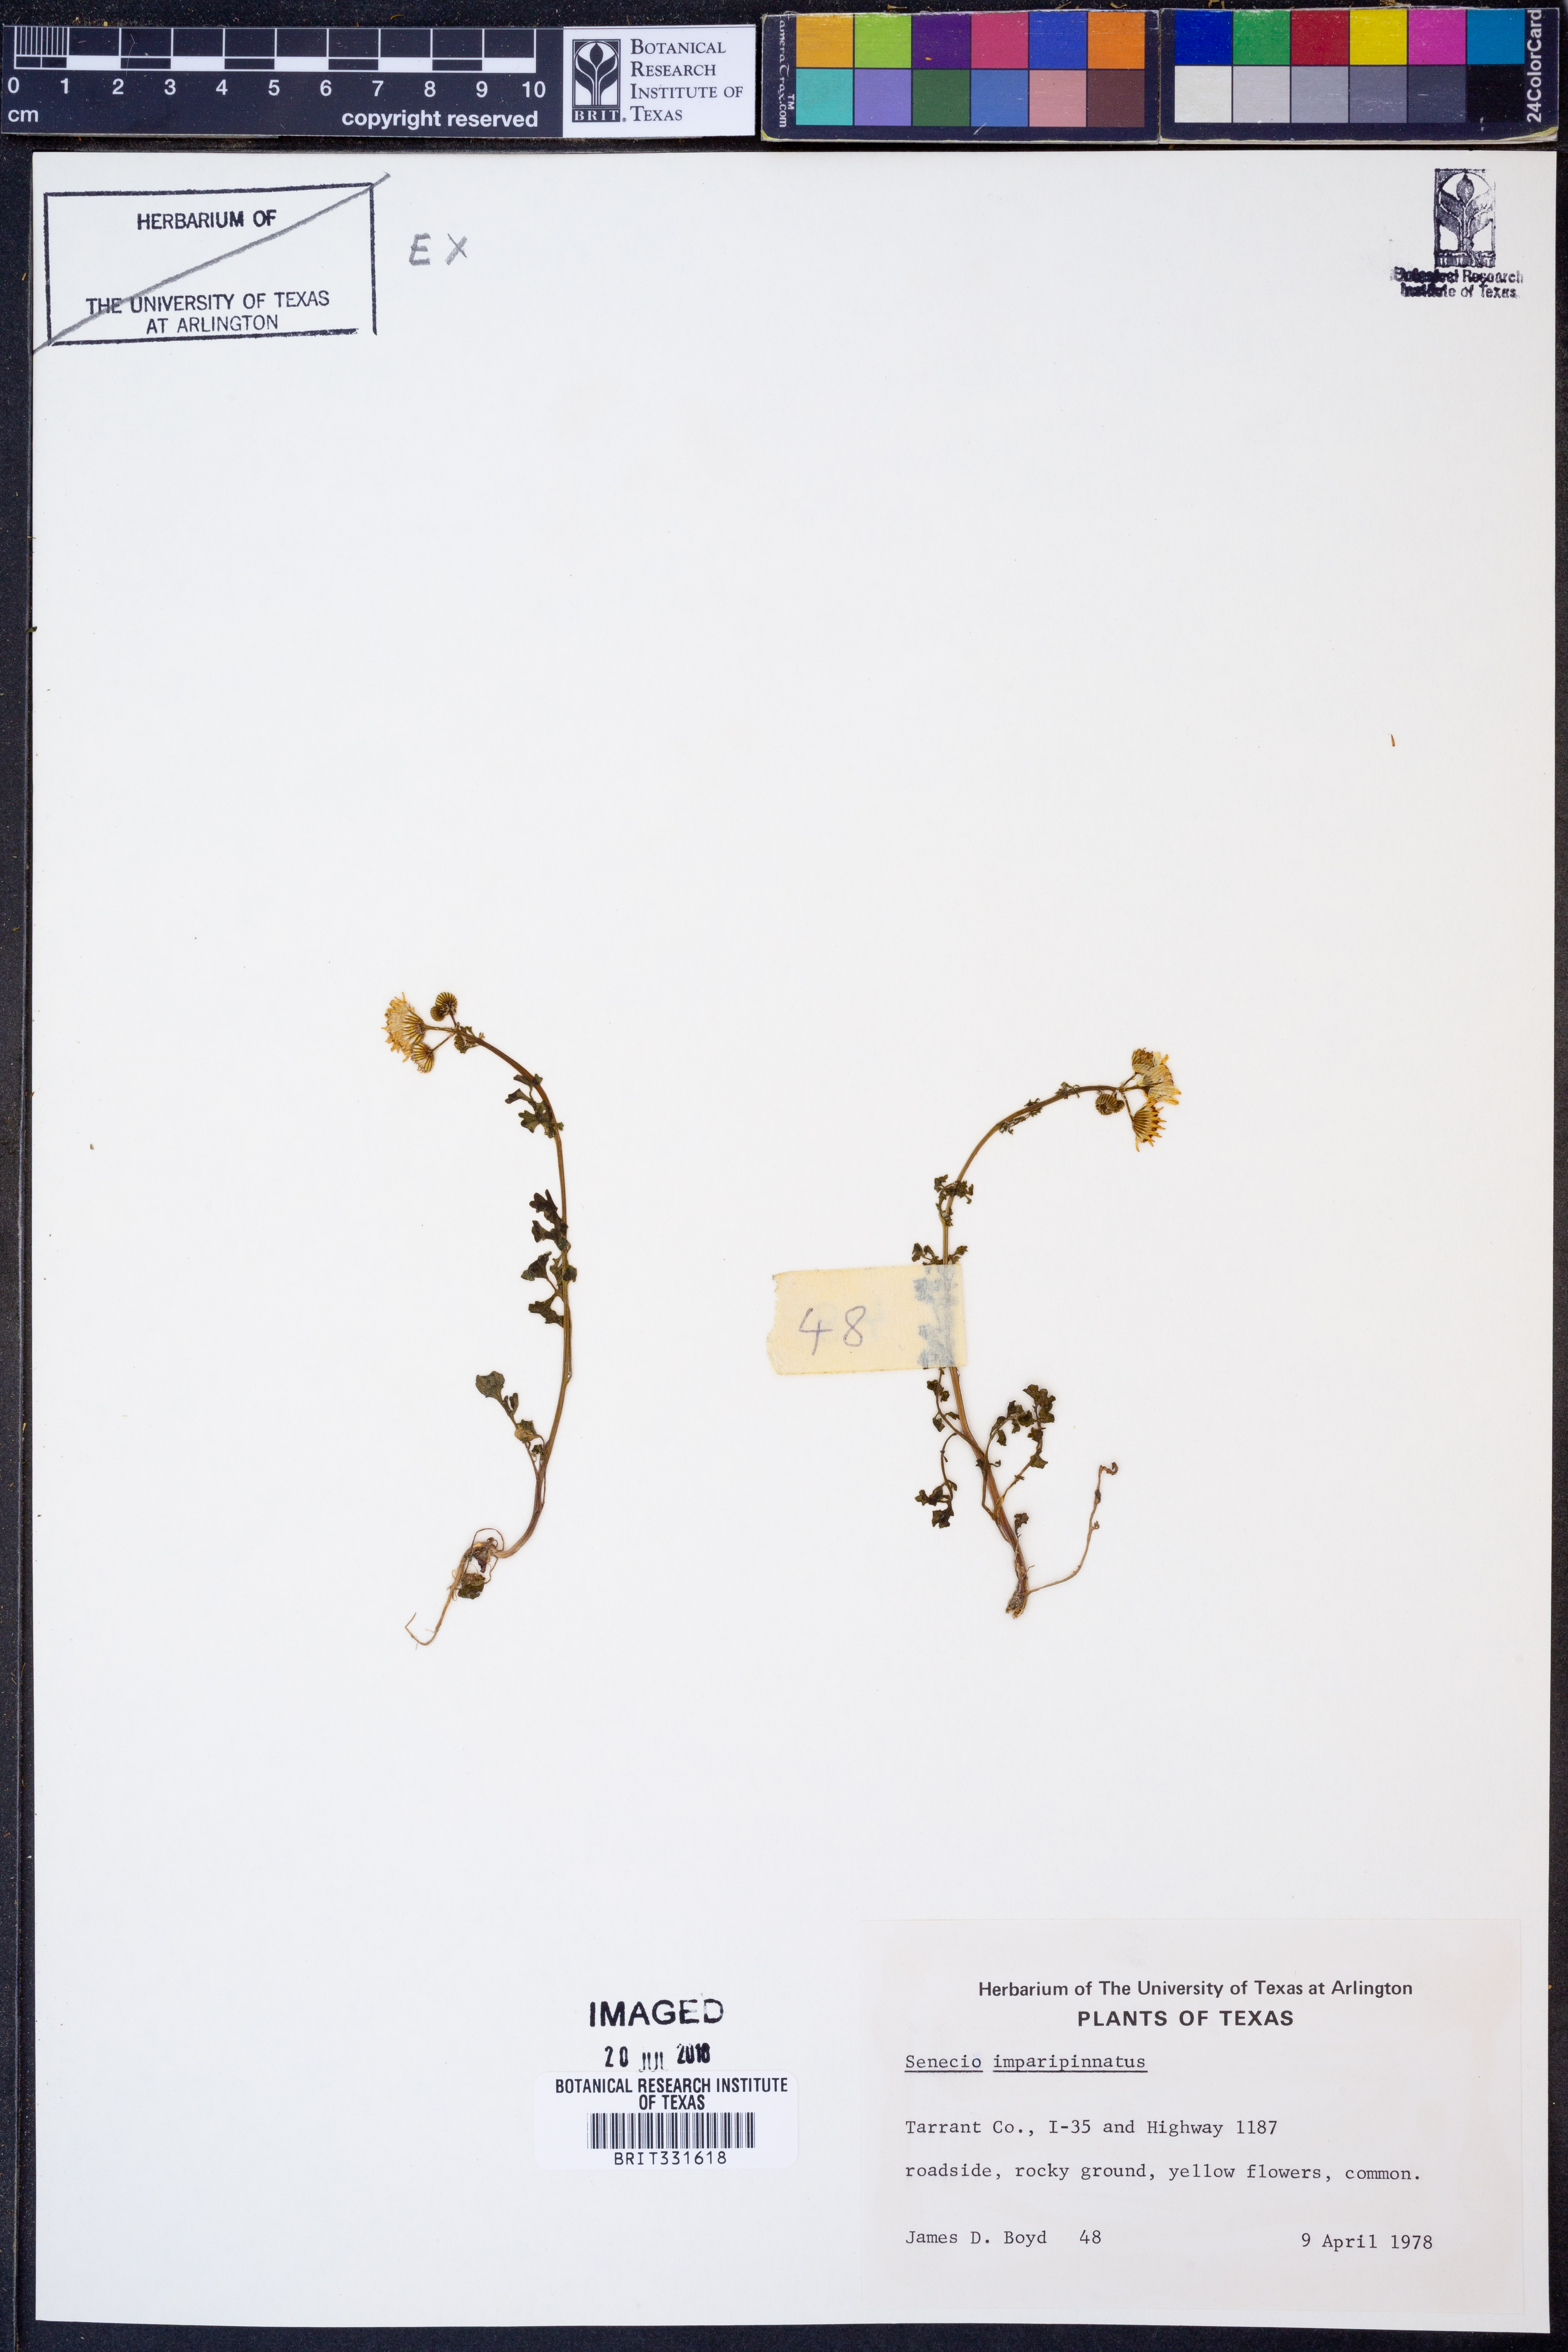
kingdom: Plantae
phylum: Tracheophyta
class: Magnoliopsida
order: Asterales
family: Asteraceae
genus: Packera
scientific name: Packera tampicana
